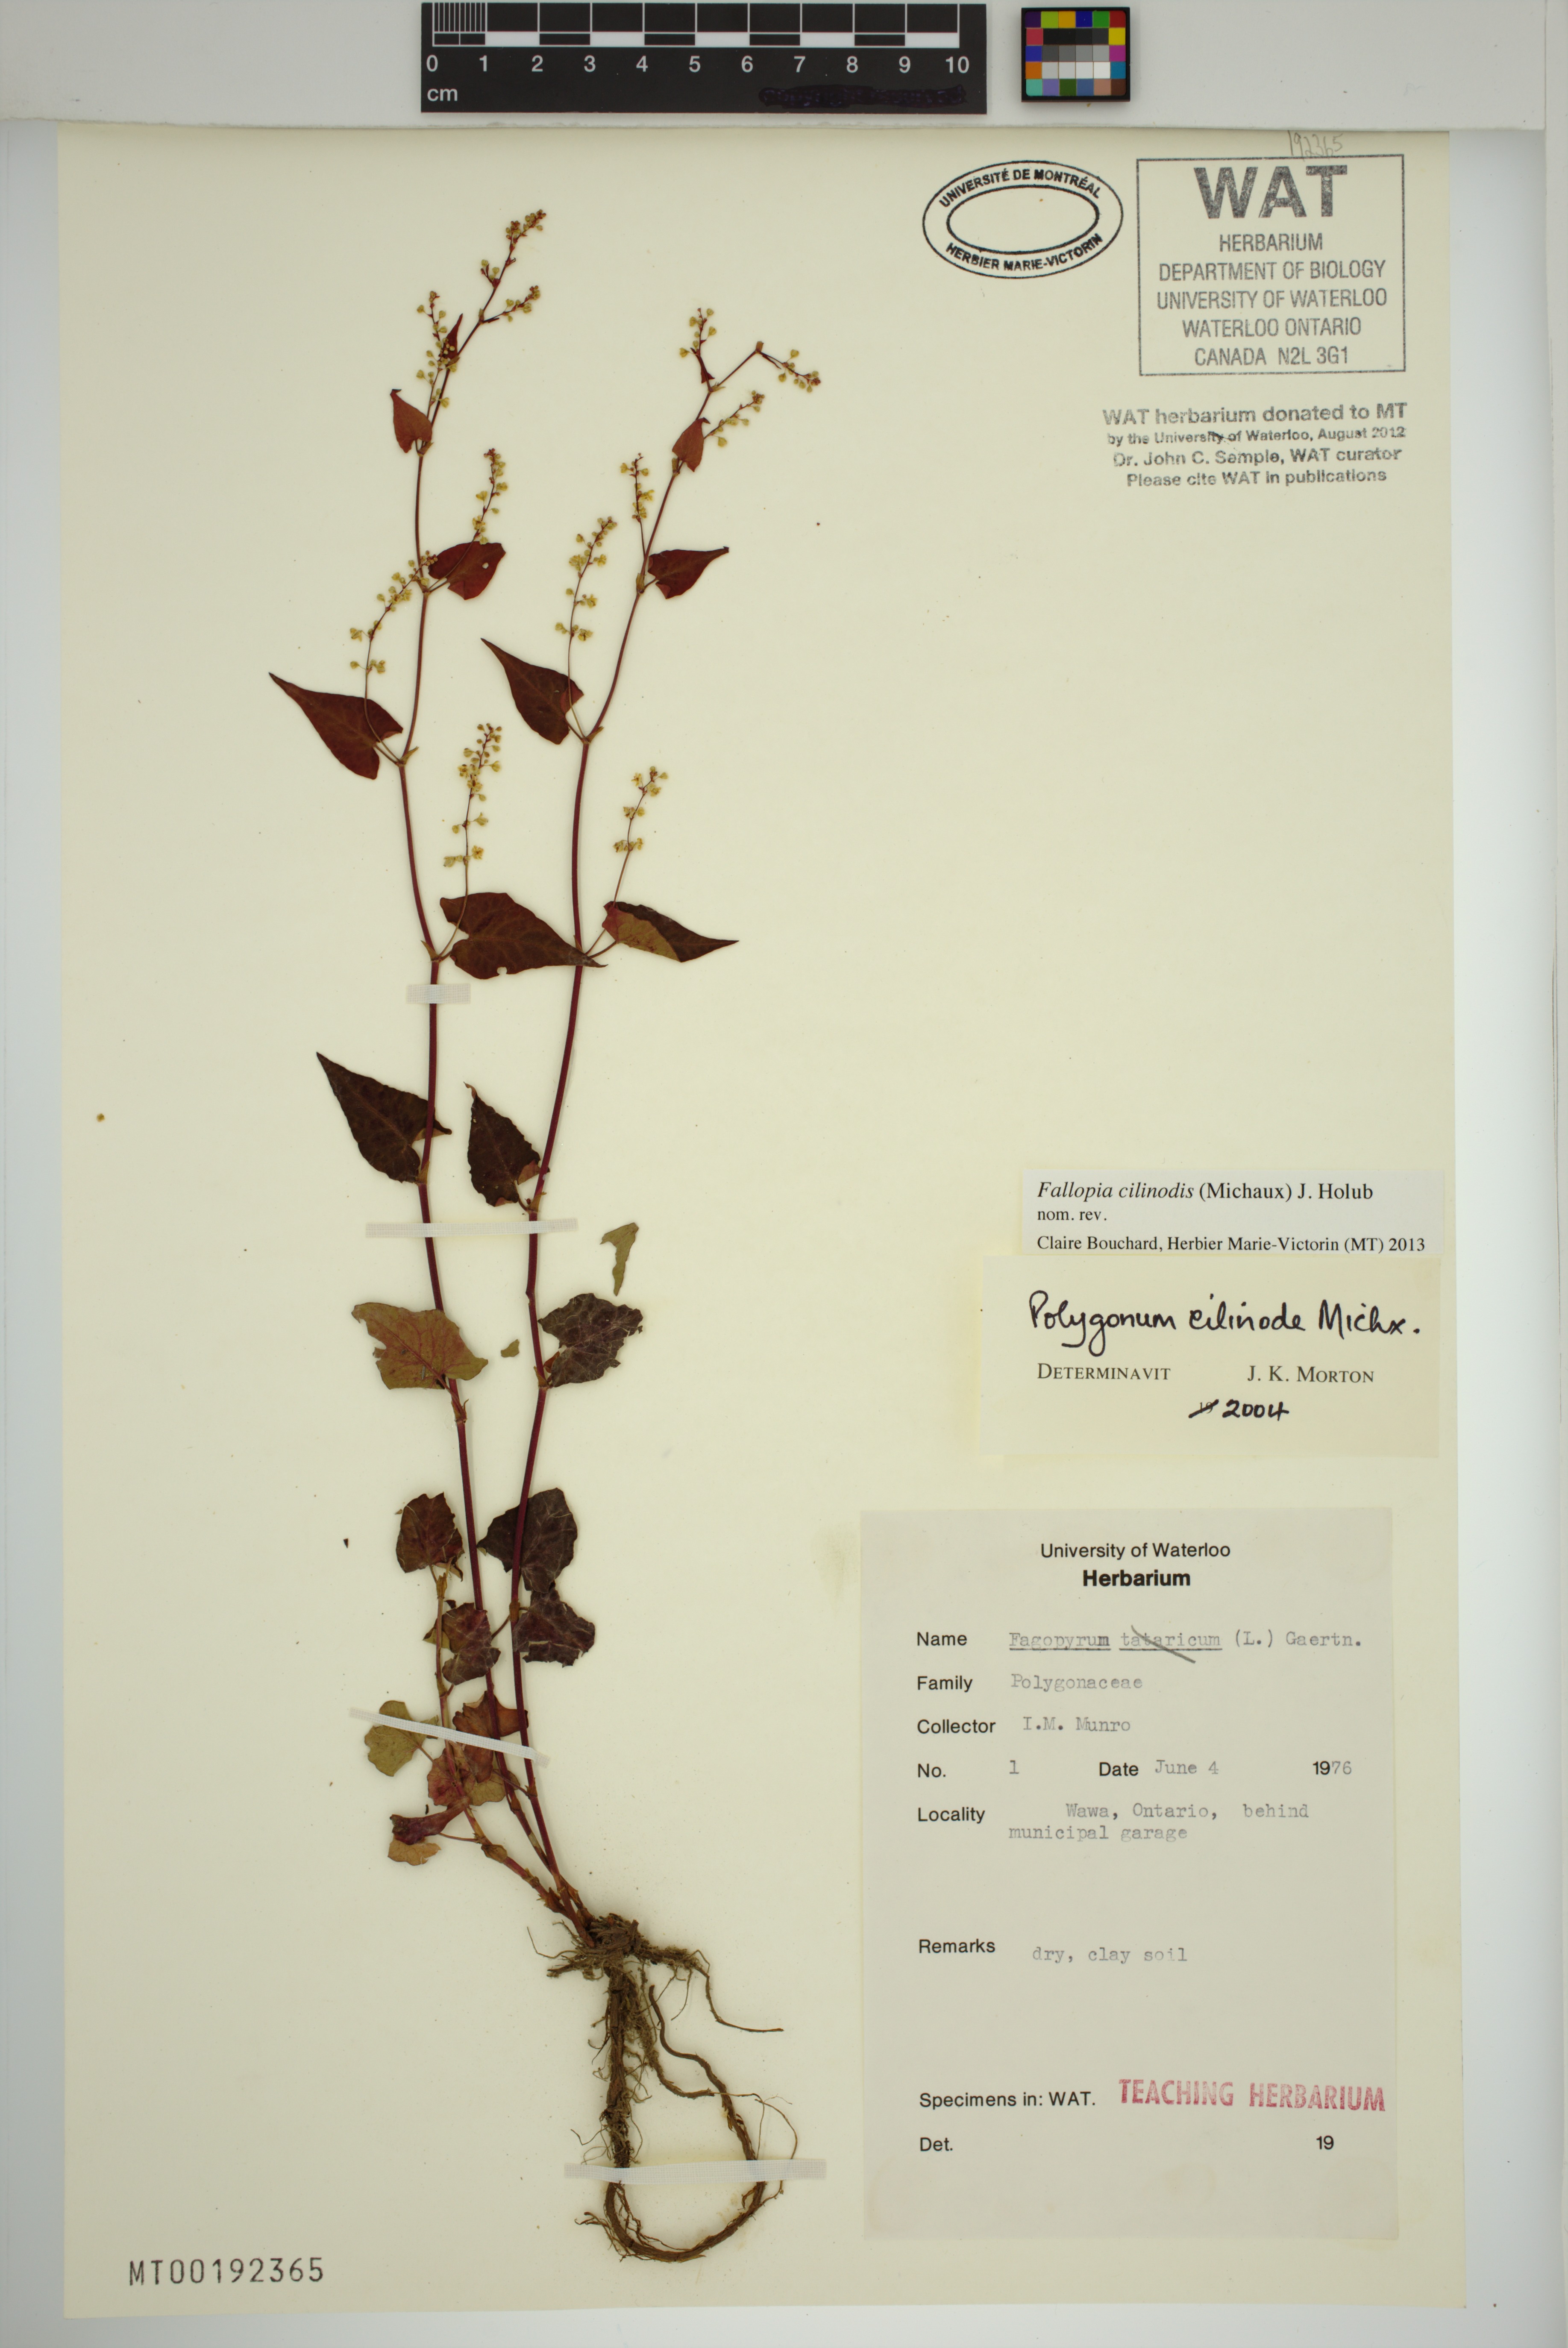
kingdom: Plantae
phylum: Tracheophyta
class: Magnoliopsida
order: Caryophyllales
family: Polygonaceae
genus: Parogonum
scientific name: Parogonum ciliinode
